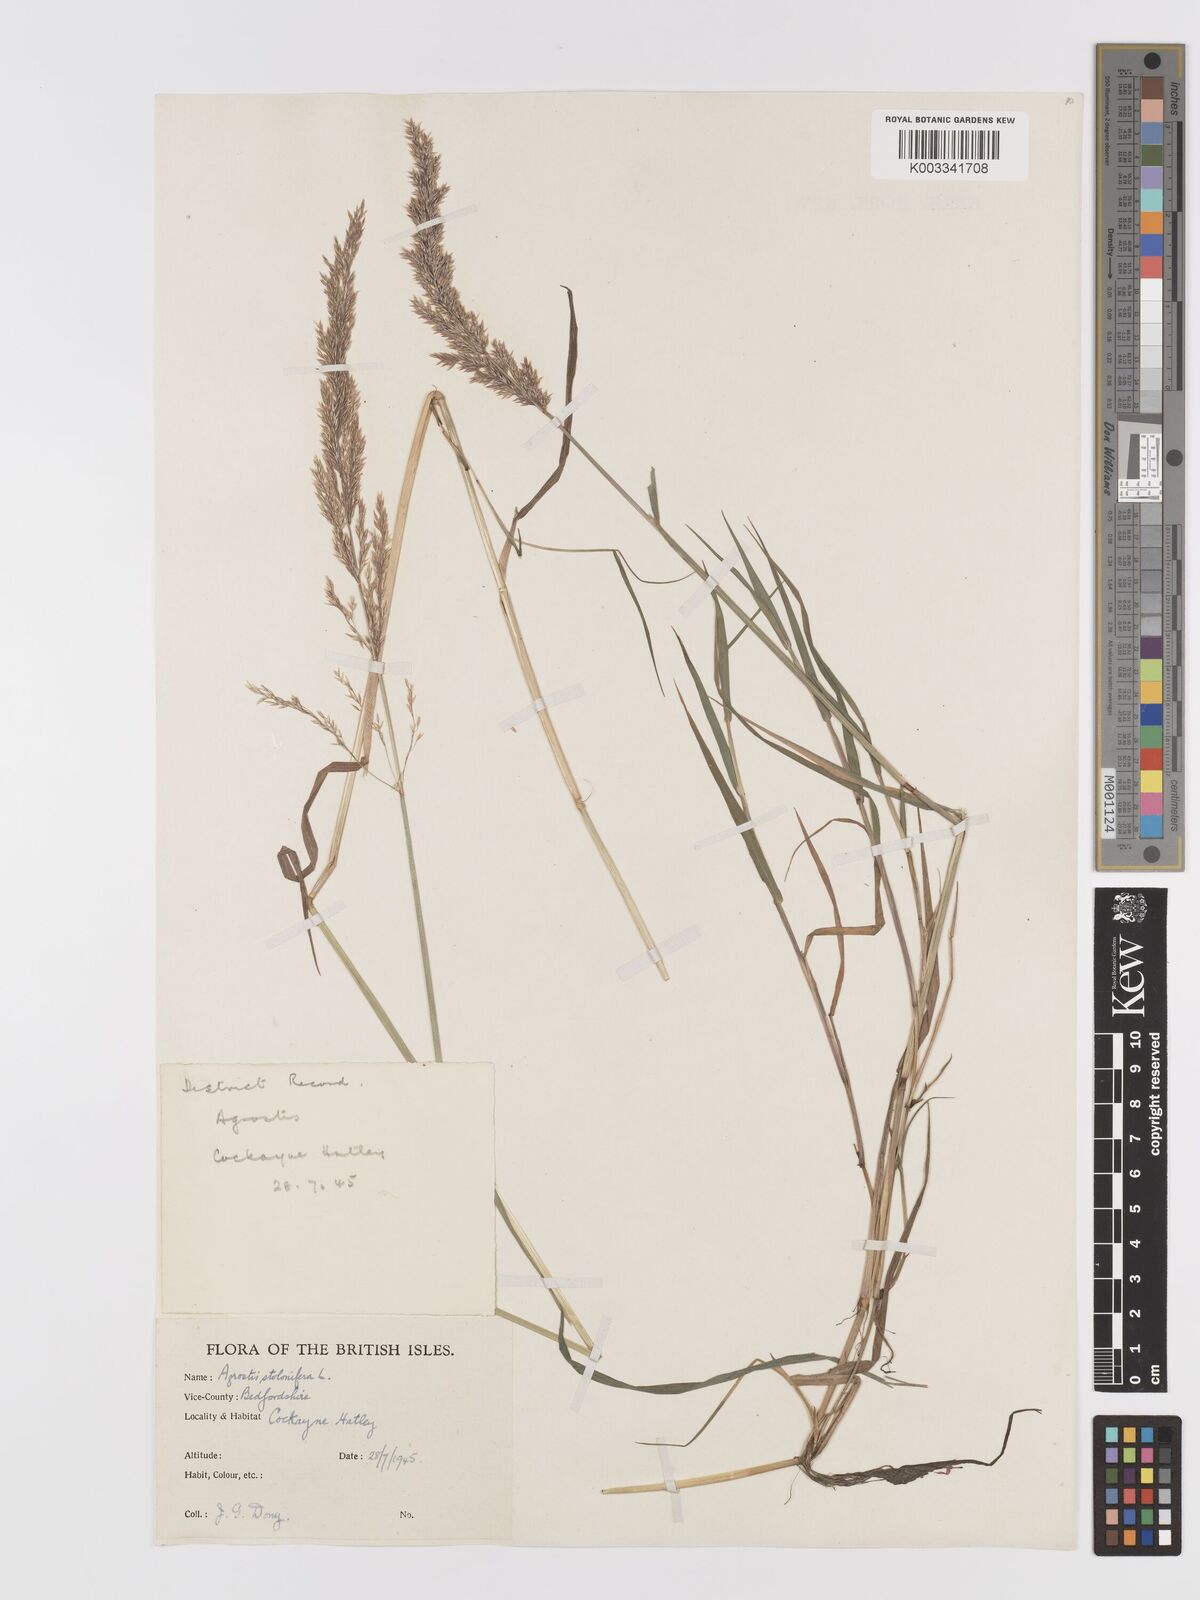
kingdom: Plantae
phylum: Tracheophyta
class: Liliopsida
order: Poales
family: Poaceae
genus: Agrostis
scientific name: Agrostis stolonifera
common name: Creeping bentgrass
